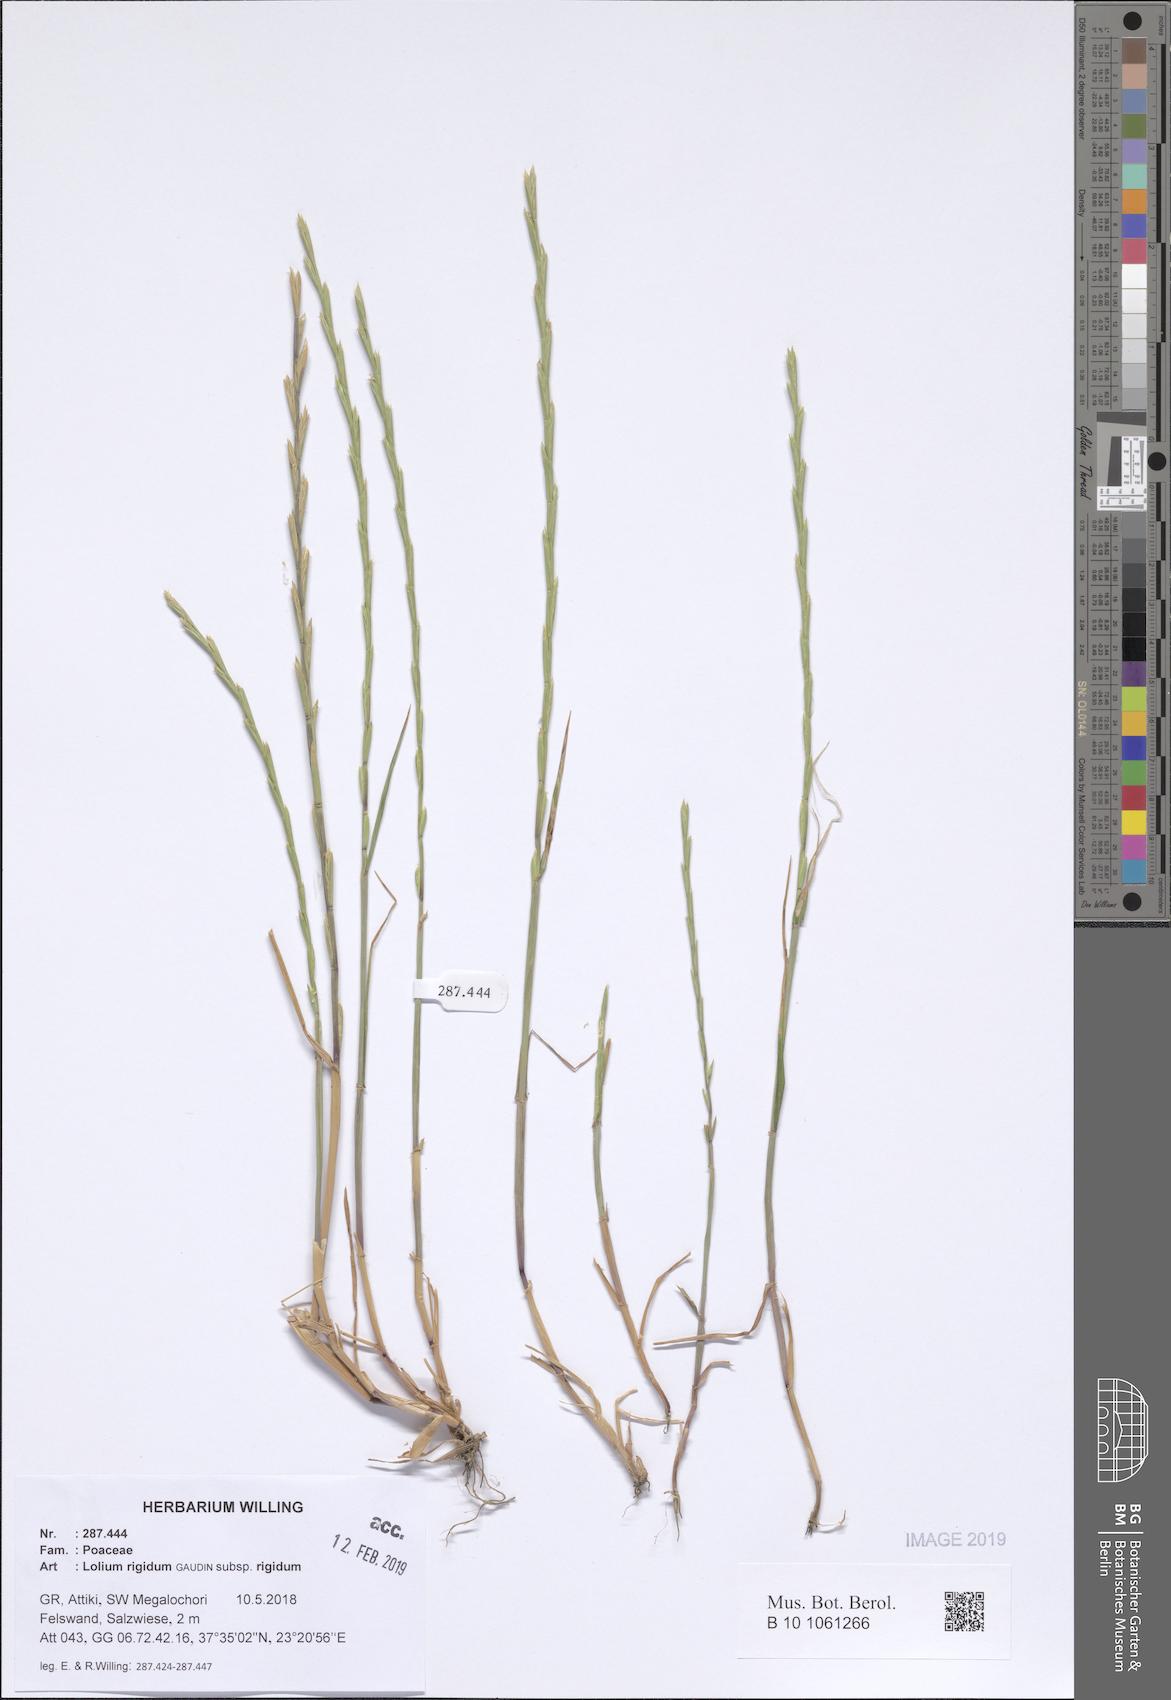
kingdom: Plantae
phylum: Tracheophyta
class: Liliopsida
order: Poales
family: Poaceae
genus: Lolium
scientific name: Lolium rigidum
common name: Wimmera ryegrass
